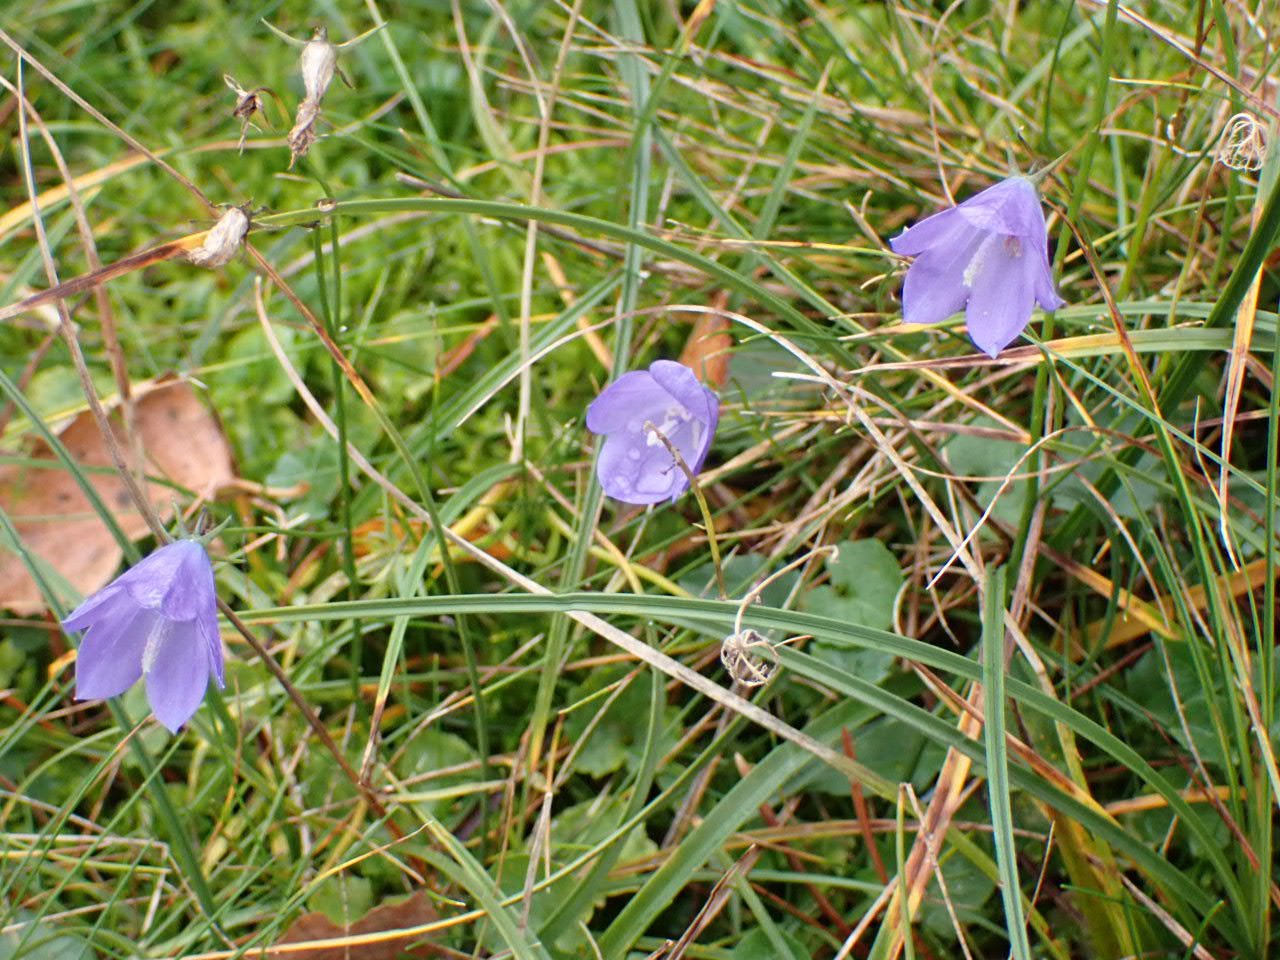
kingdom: Plantae
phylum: Tracheophyta
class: Magnoliopsida
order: Asterales
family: Campanulaceae
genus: Campanula
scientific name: Campanula rotundifolia
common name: Liden klokke
